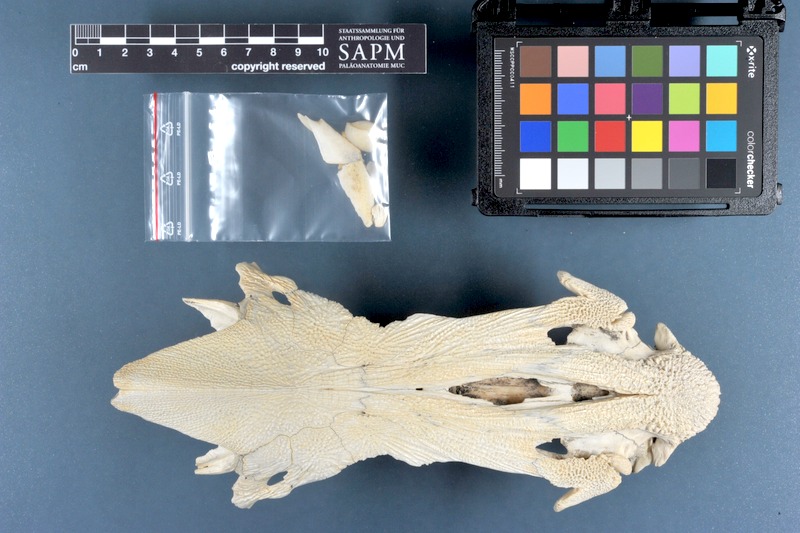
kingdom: Animalia
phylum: Chordata
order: Siluriformes
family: Ariidae
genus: Netuma
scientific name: Netuma thalassina
